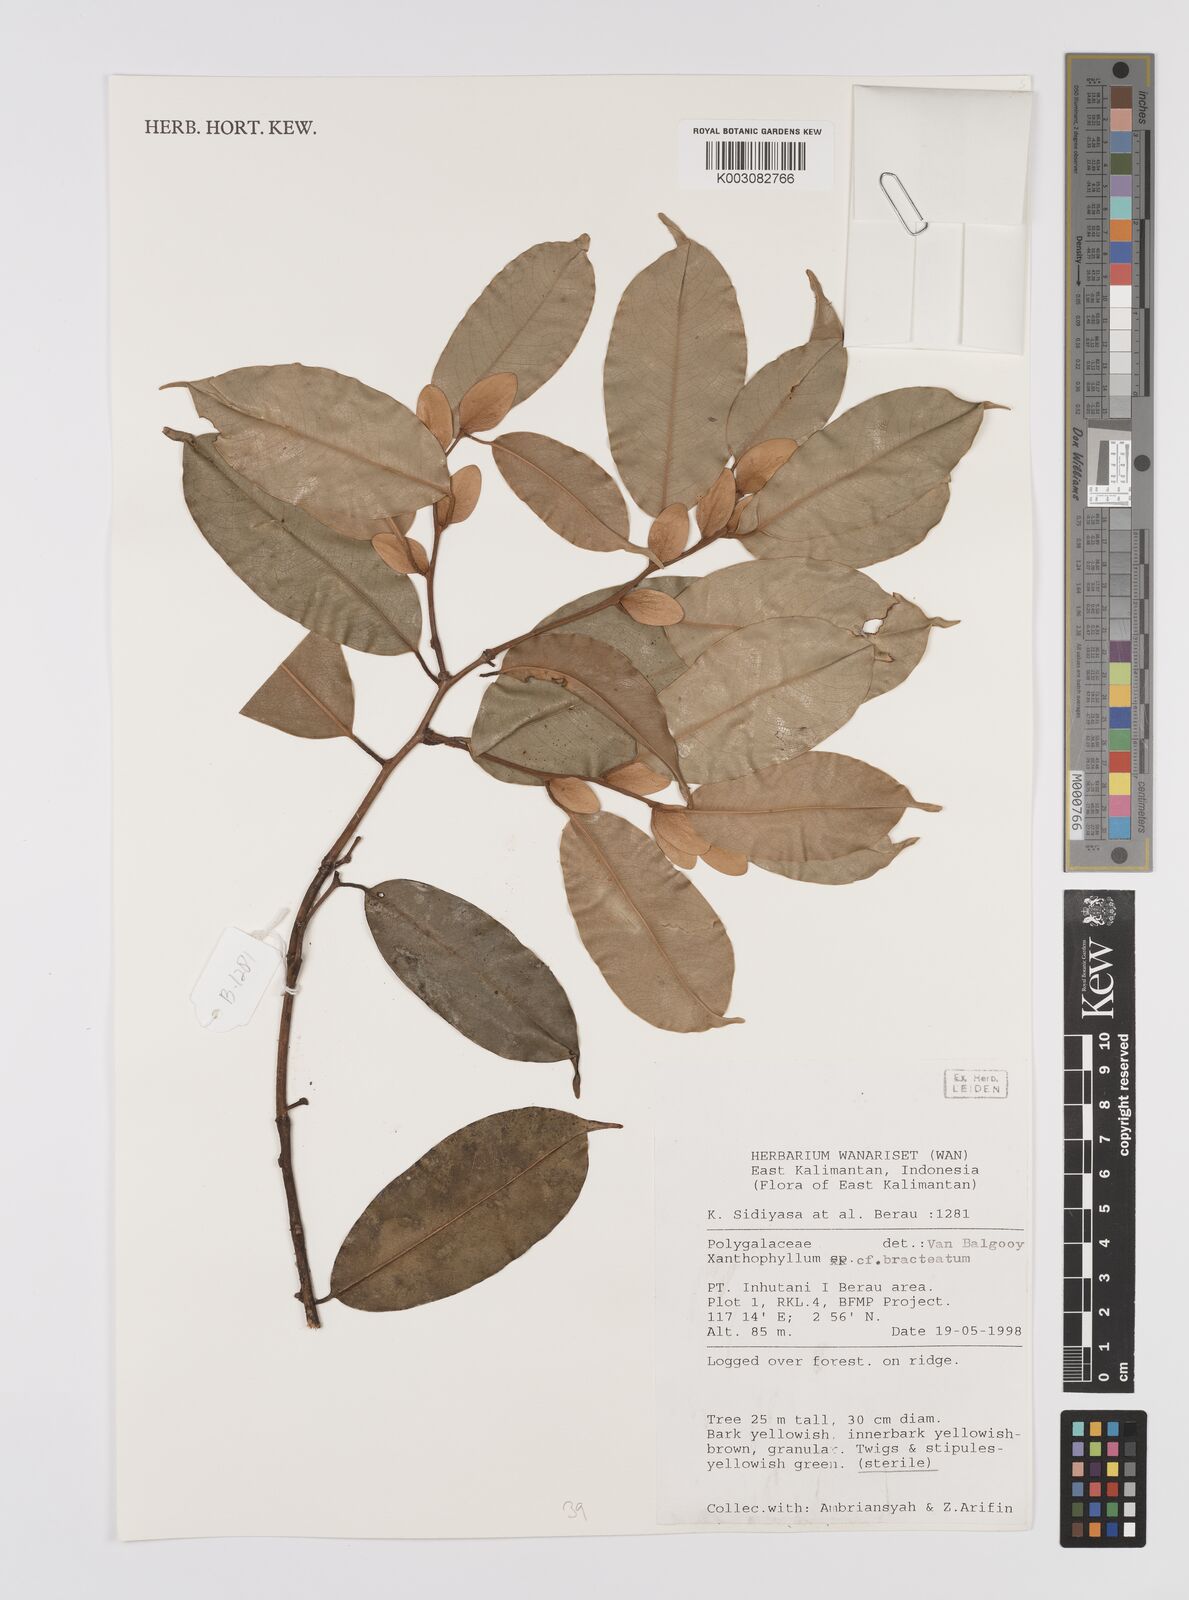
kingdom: Plantae
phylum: Tracheophyta
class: Magnoliopsida
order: Fabales
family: Polygalaceae
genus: Xanthophyllum
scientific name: Xanthophyllum bracteatum
